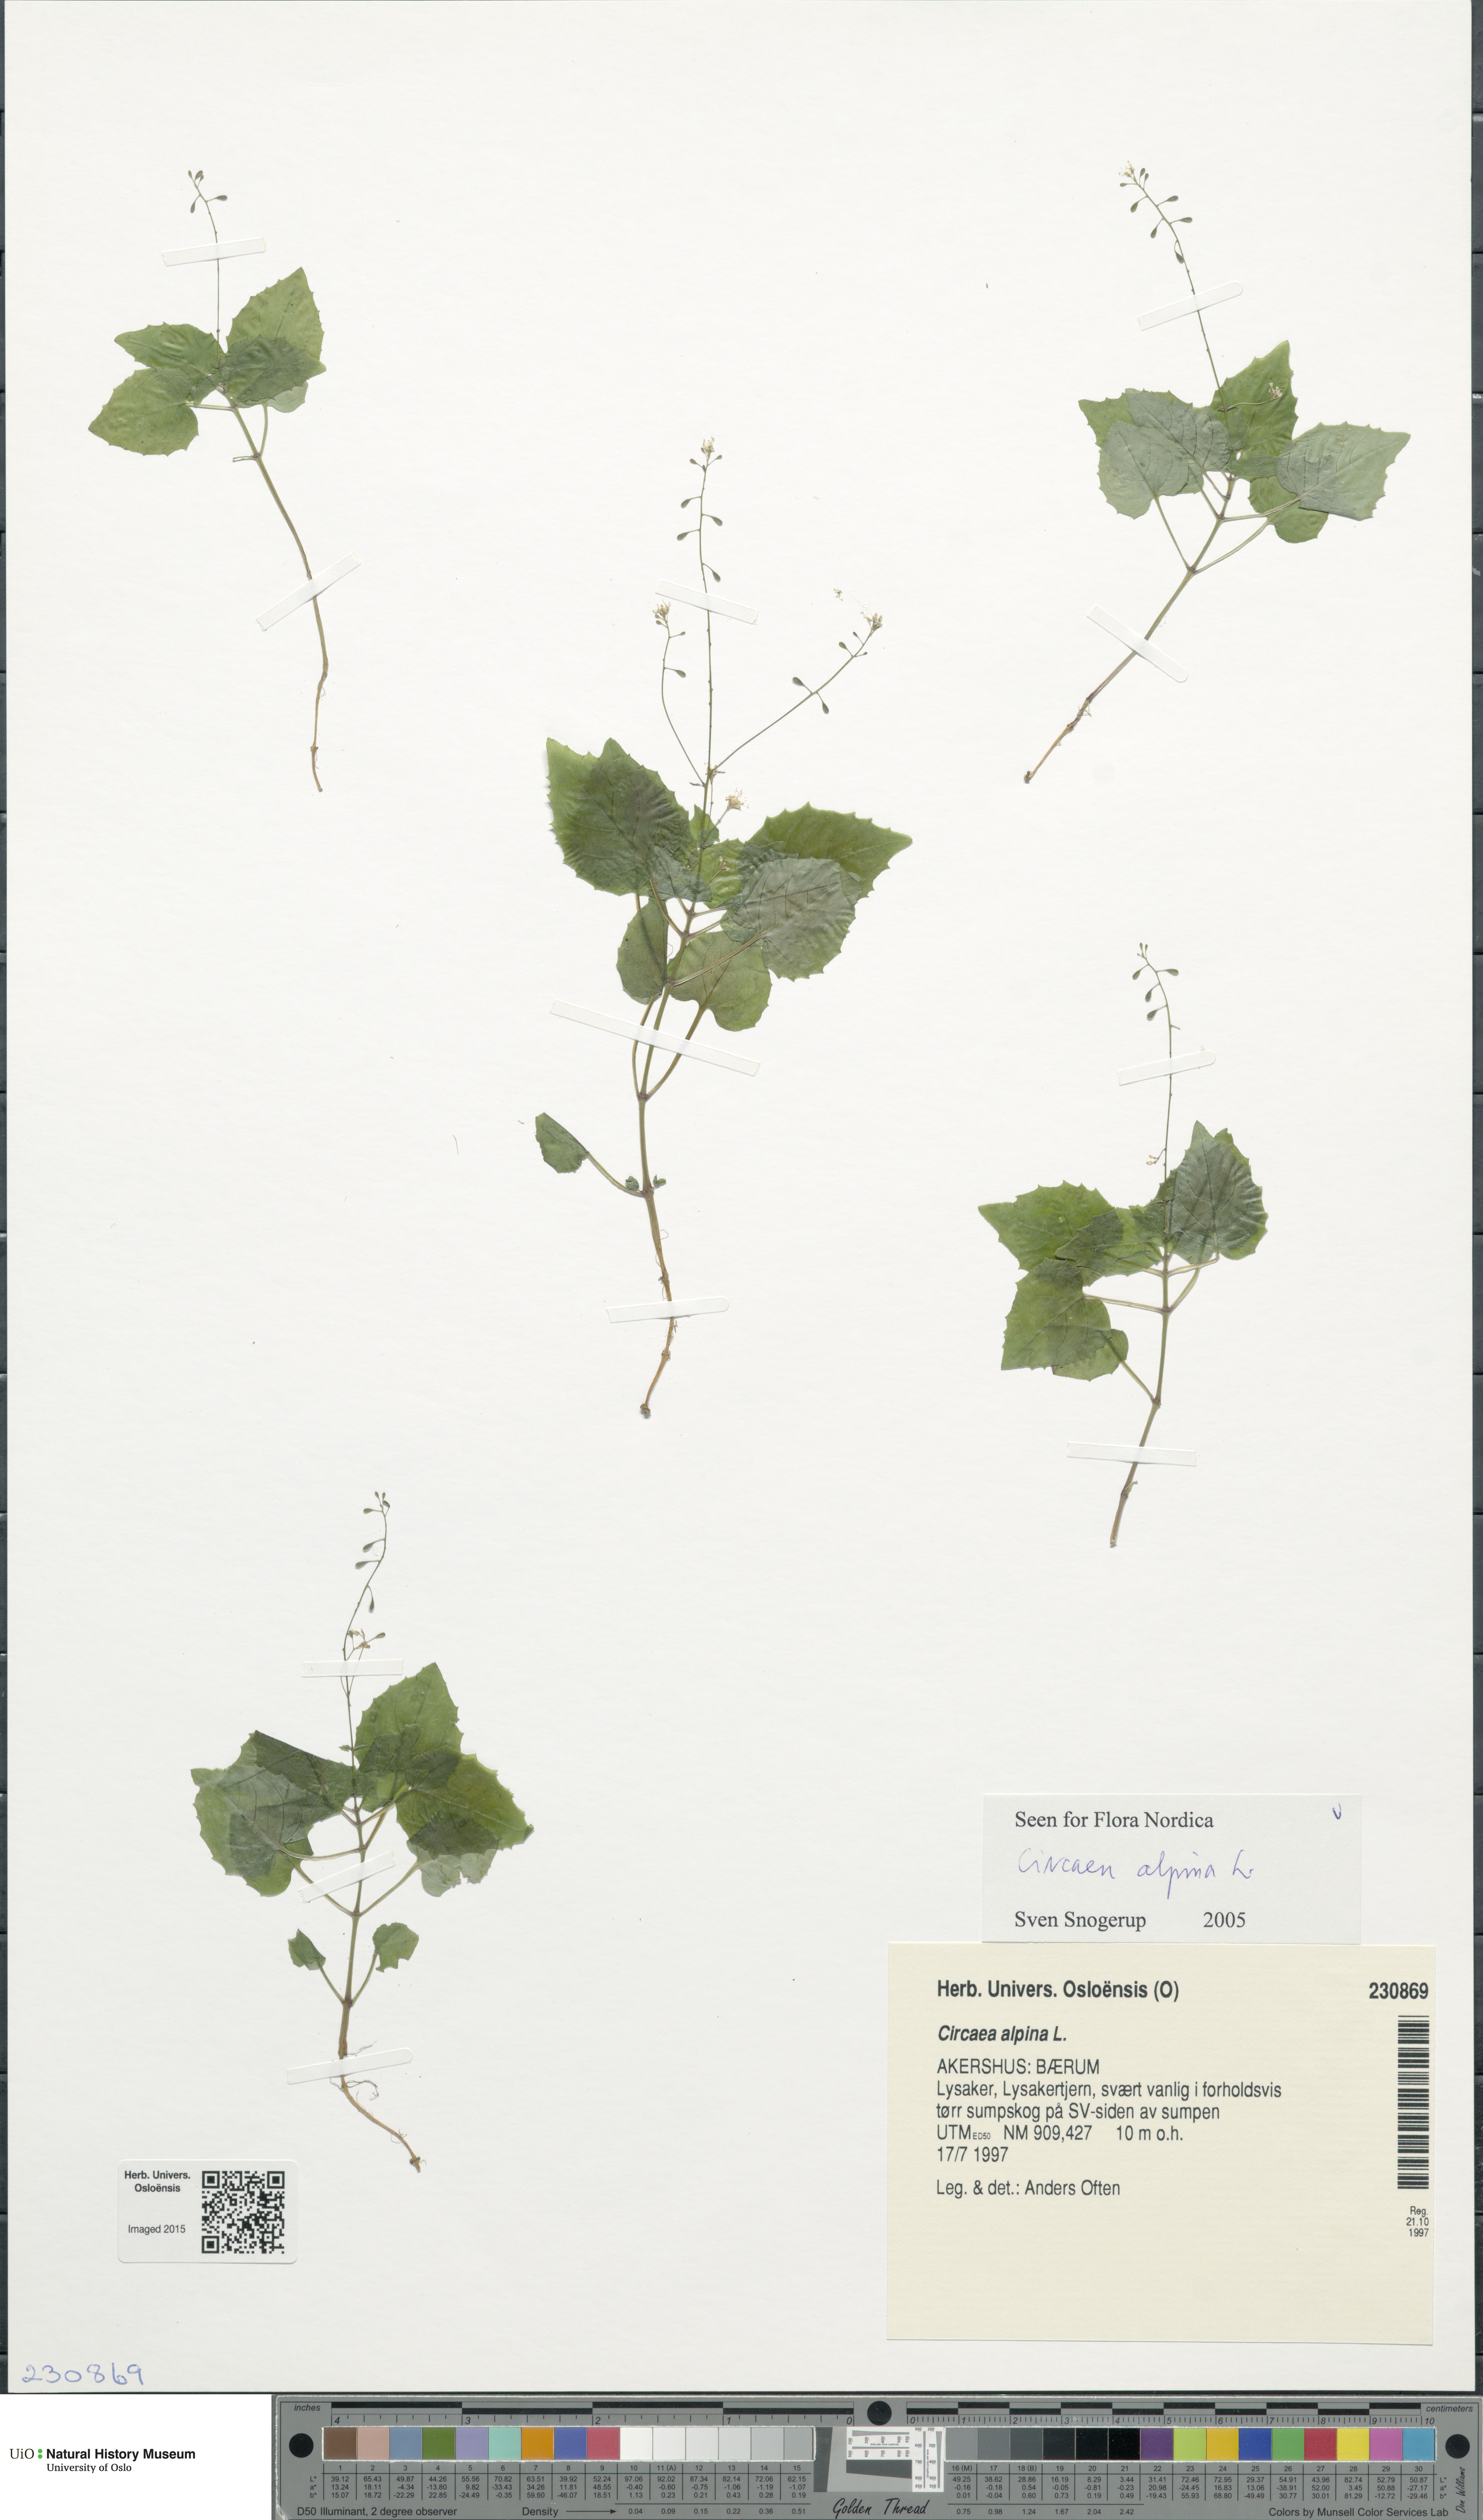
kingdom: Plantae
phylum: Tracheophyta
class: Magnoliopsida
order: Myrtales
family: Onagraceae
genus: Circaea
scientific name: Circaea alpina
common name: Alpine enchanter's-nightshade
